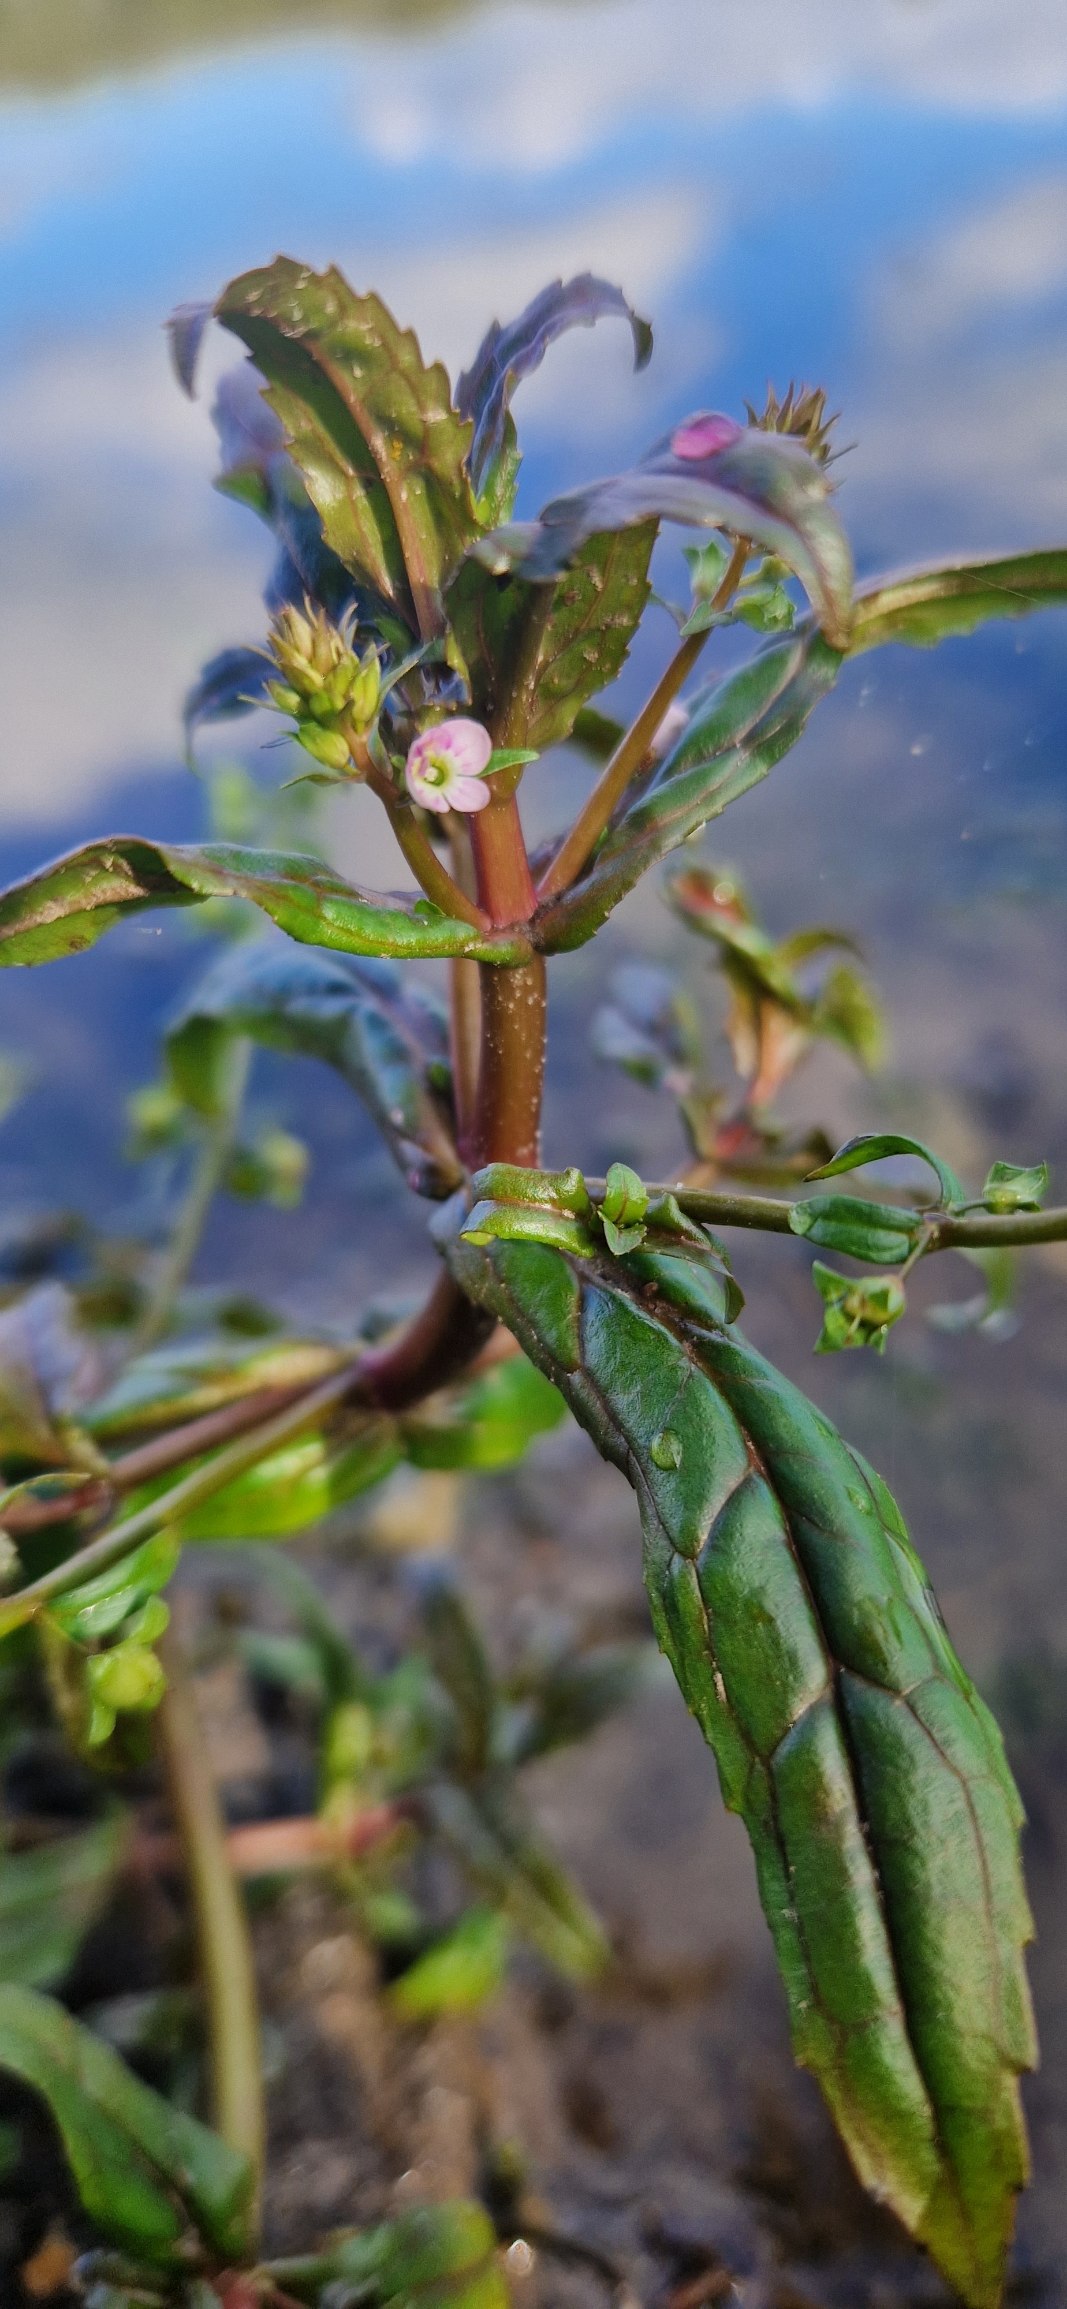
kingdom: Plantae
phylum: Tracheophyta
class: Magnoliopsida
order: Lamiales
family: Plantaginaceae
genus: Veronica
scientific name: Veronica catenata
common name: Vand-ærenpris
